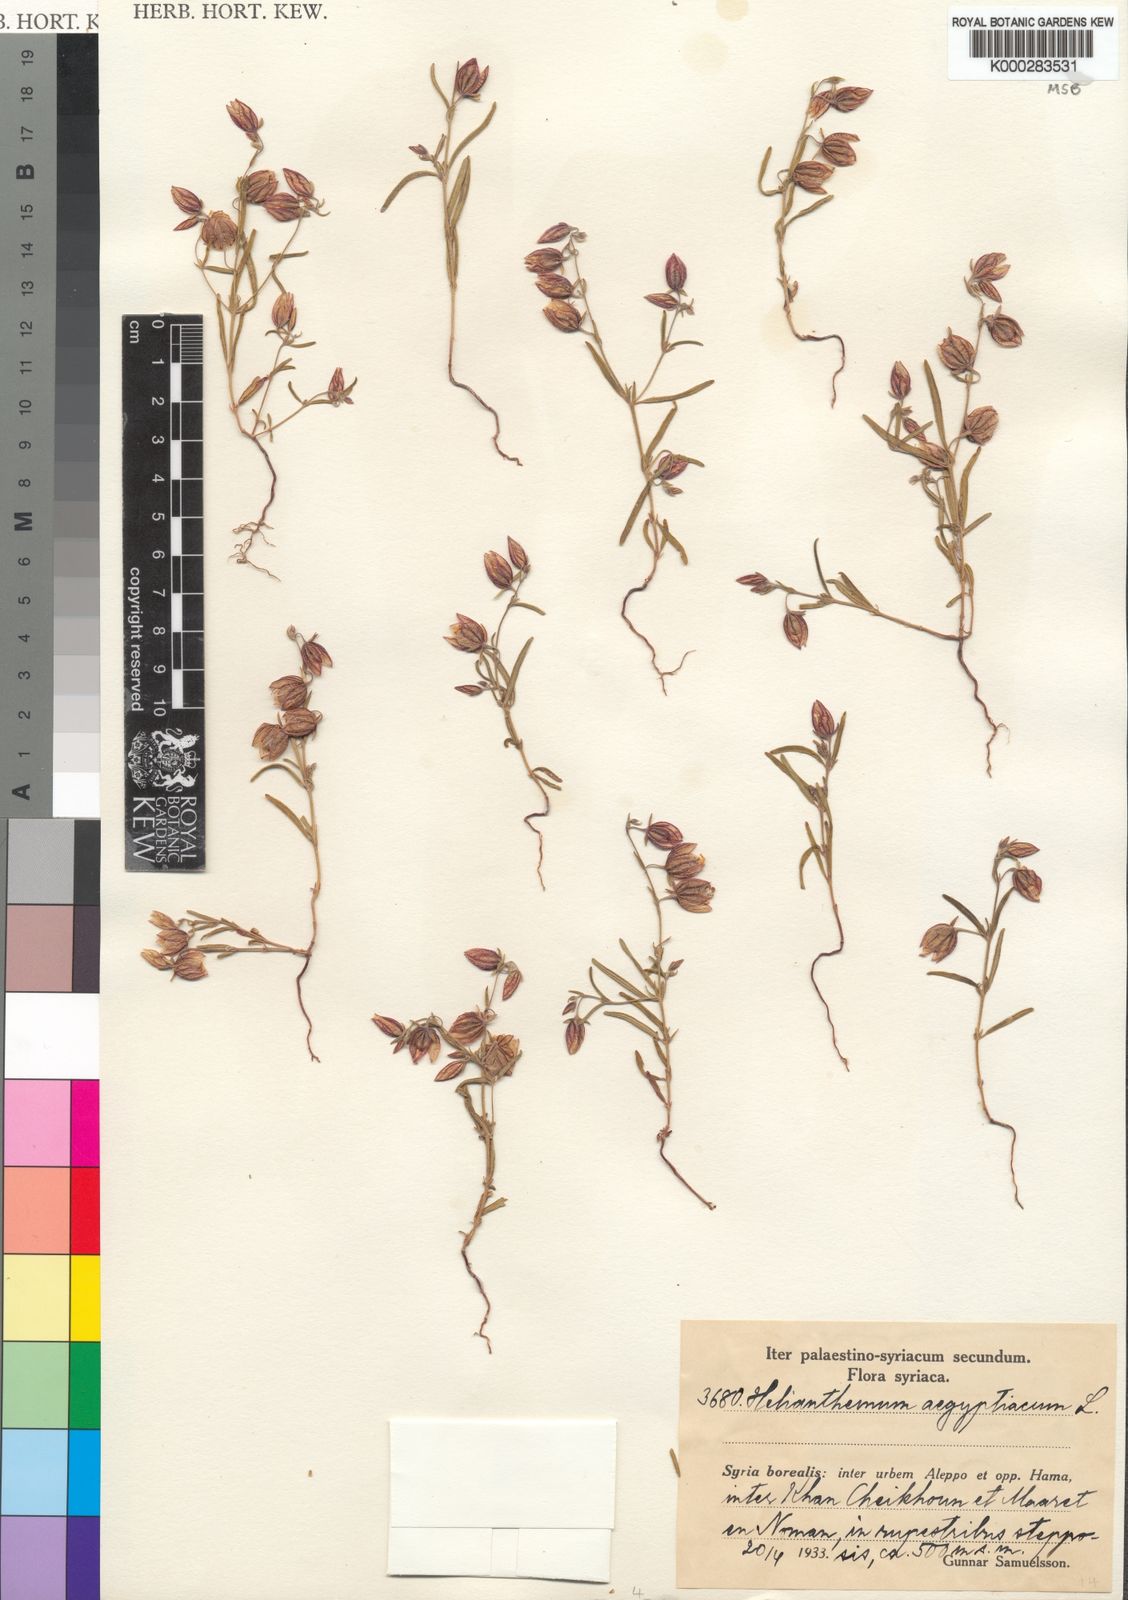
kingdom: Plantae
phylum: Tracheophyta
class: Magnoliopsida
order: Malvales
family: Cistaceae
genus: Helianthemum
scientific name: Helianthemum aegyptiacum
